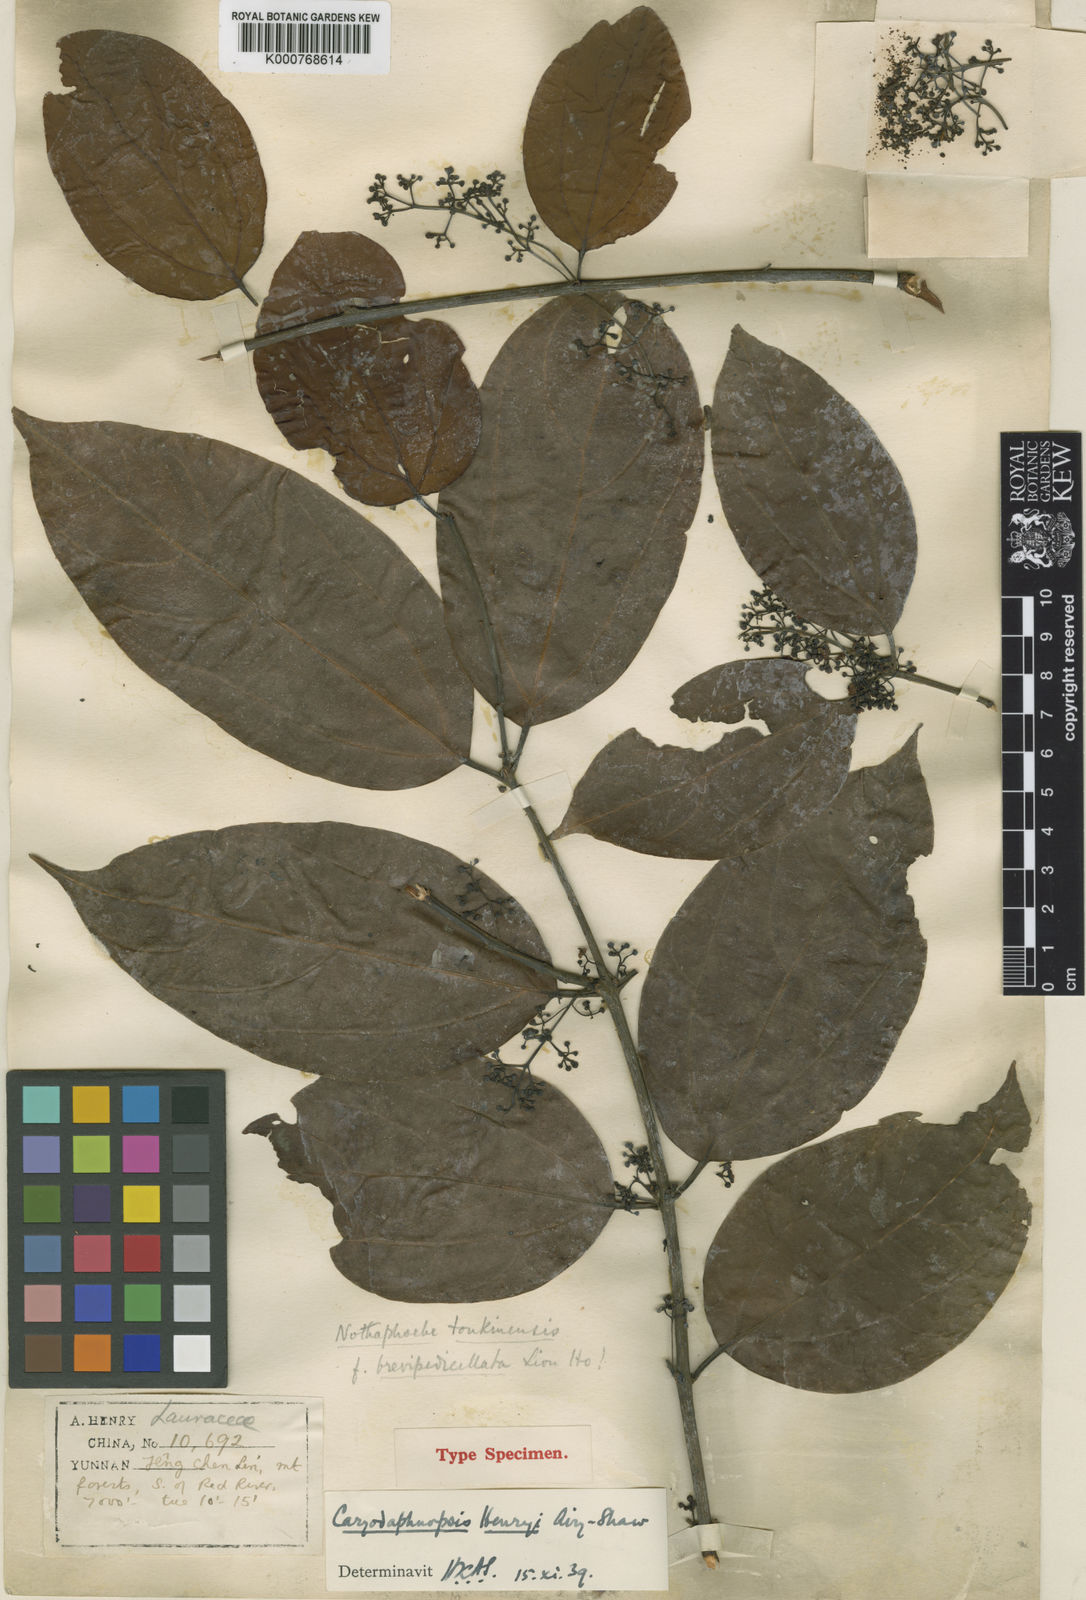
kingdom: Plantae
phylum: Tracheophyta
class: Magnoliopsida
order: Laurales
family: Lauraceae
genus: Caryodaphnopsis
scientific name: Caryodaphnopsis henryi
